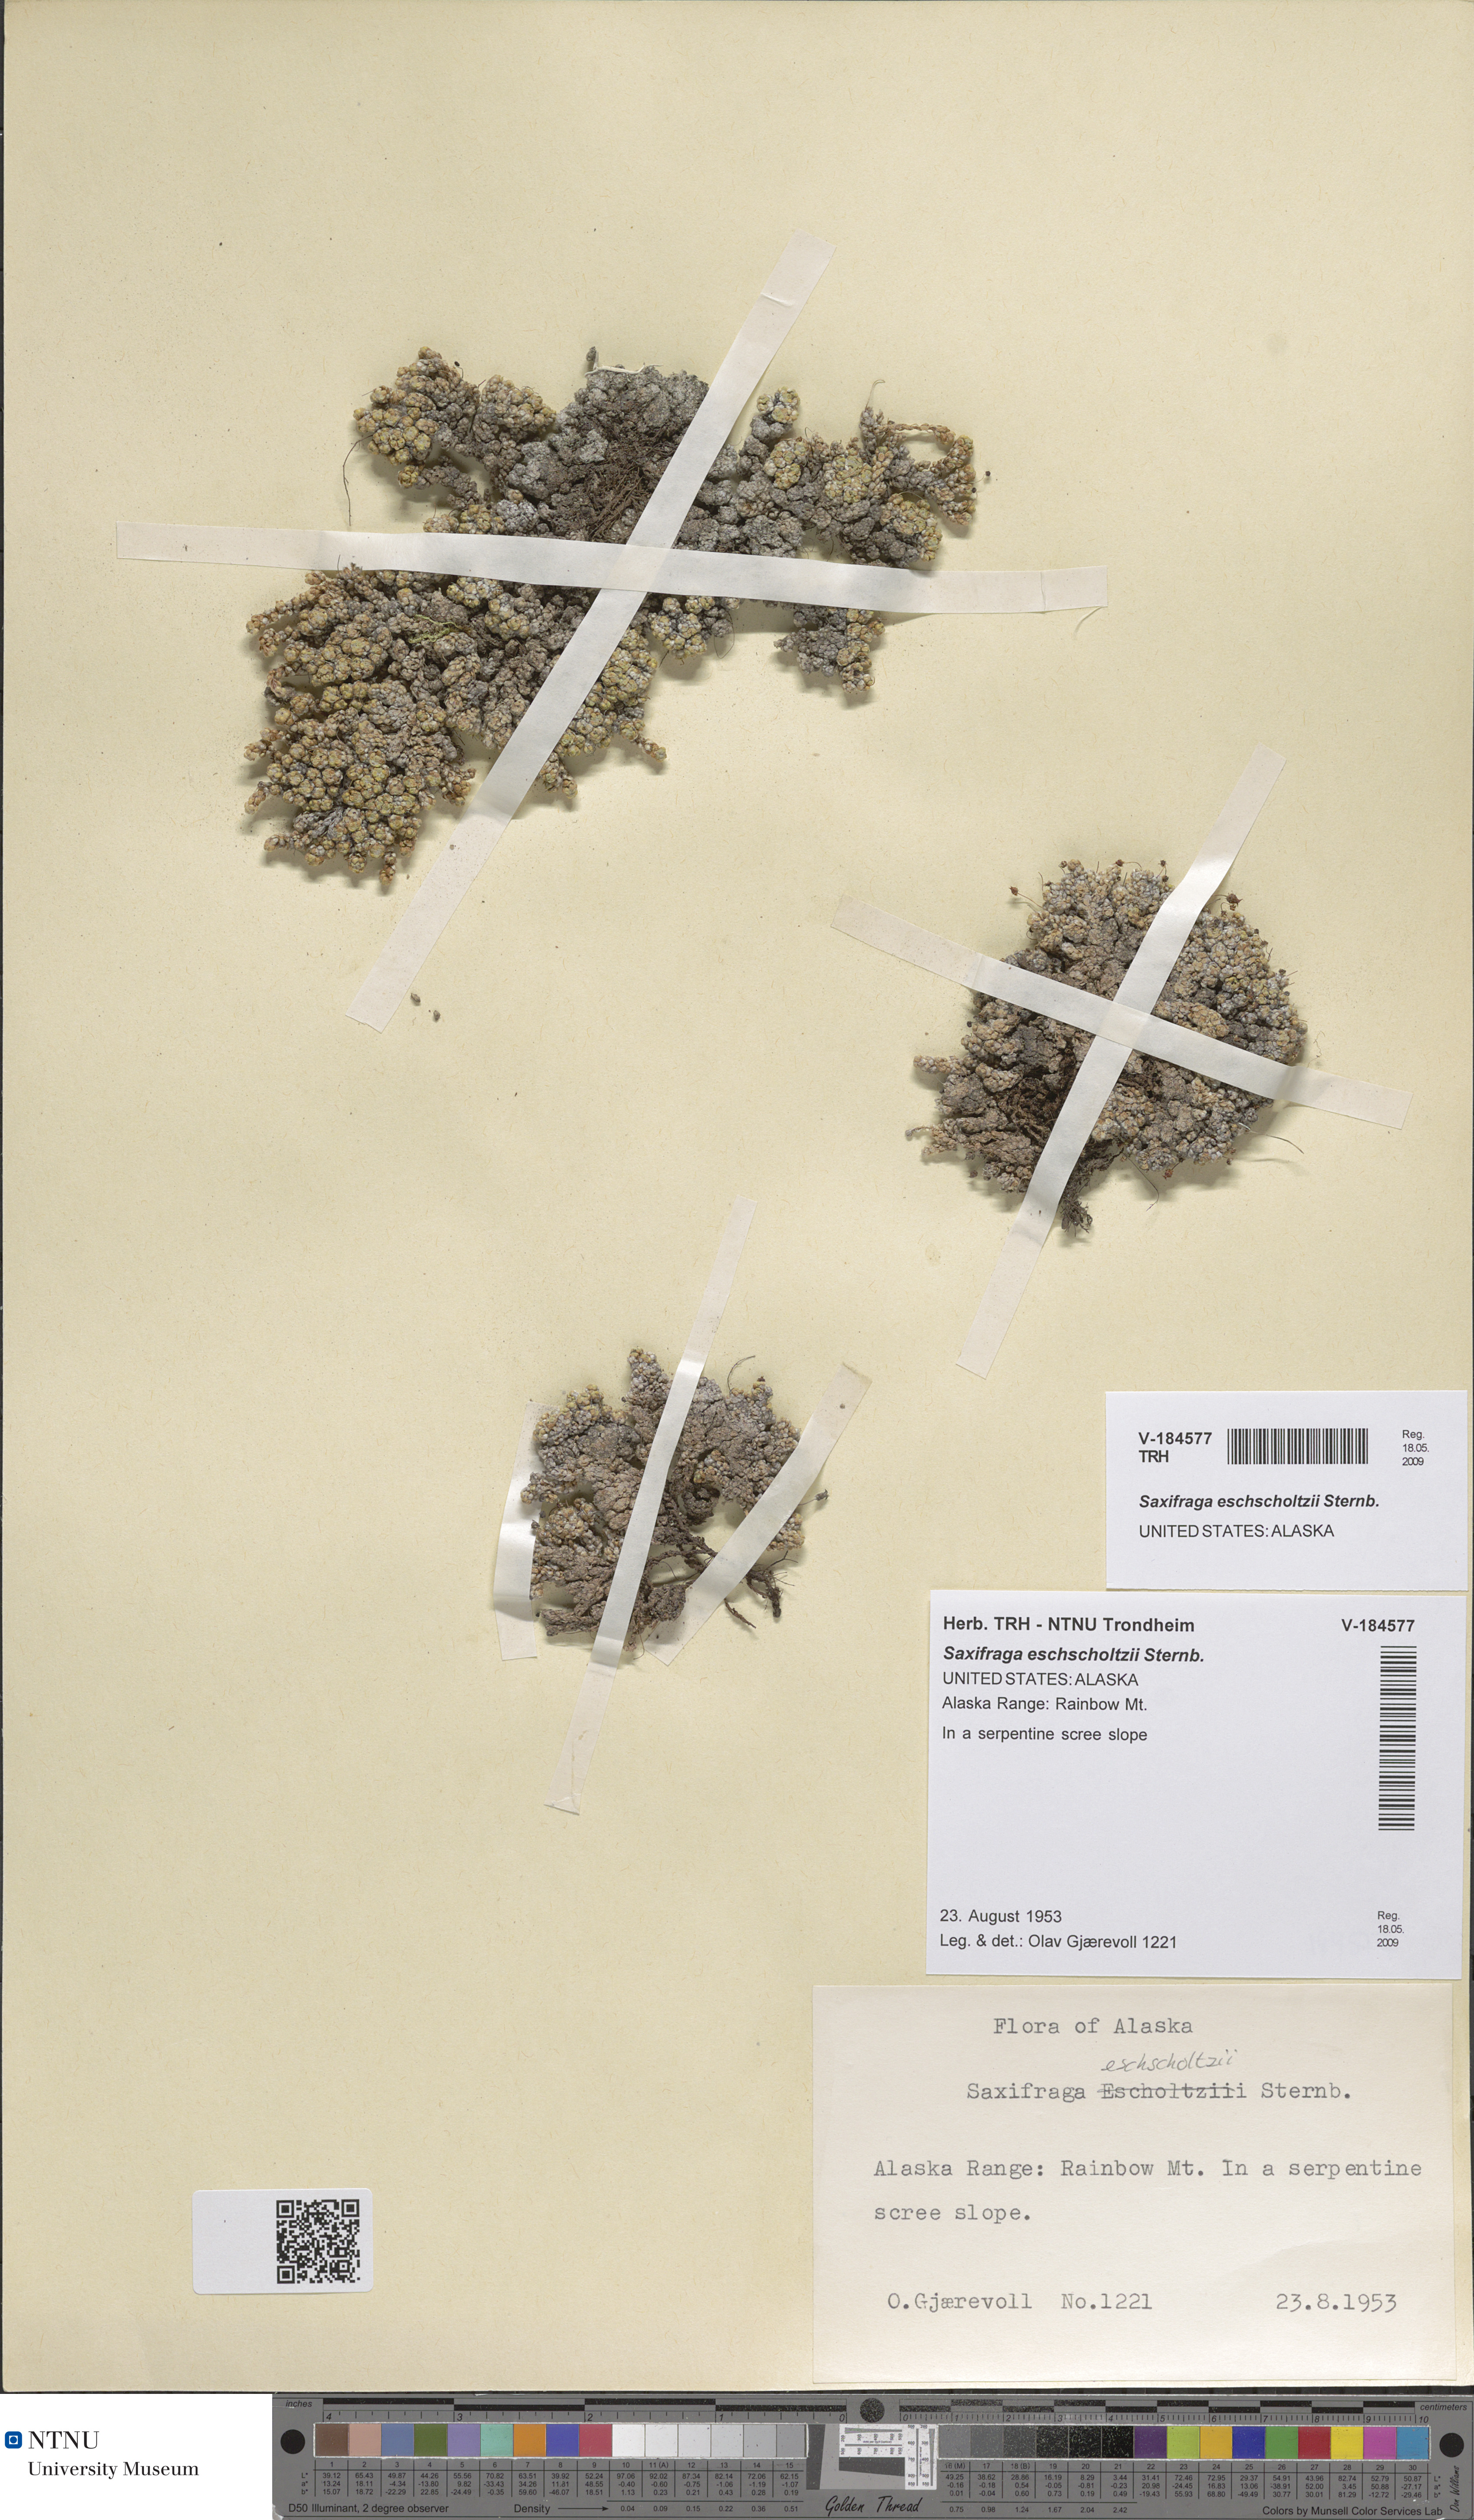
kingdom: Plantae
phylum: Tracheophyta
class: Magnoliopsida
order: Saxifragales
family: Saxifragaceae
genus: Saxifraga
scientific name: Saxifraga eschscholtzii
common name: Eschscholtz's saxifrage
